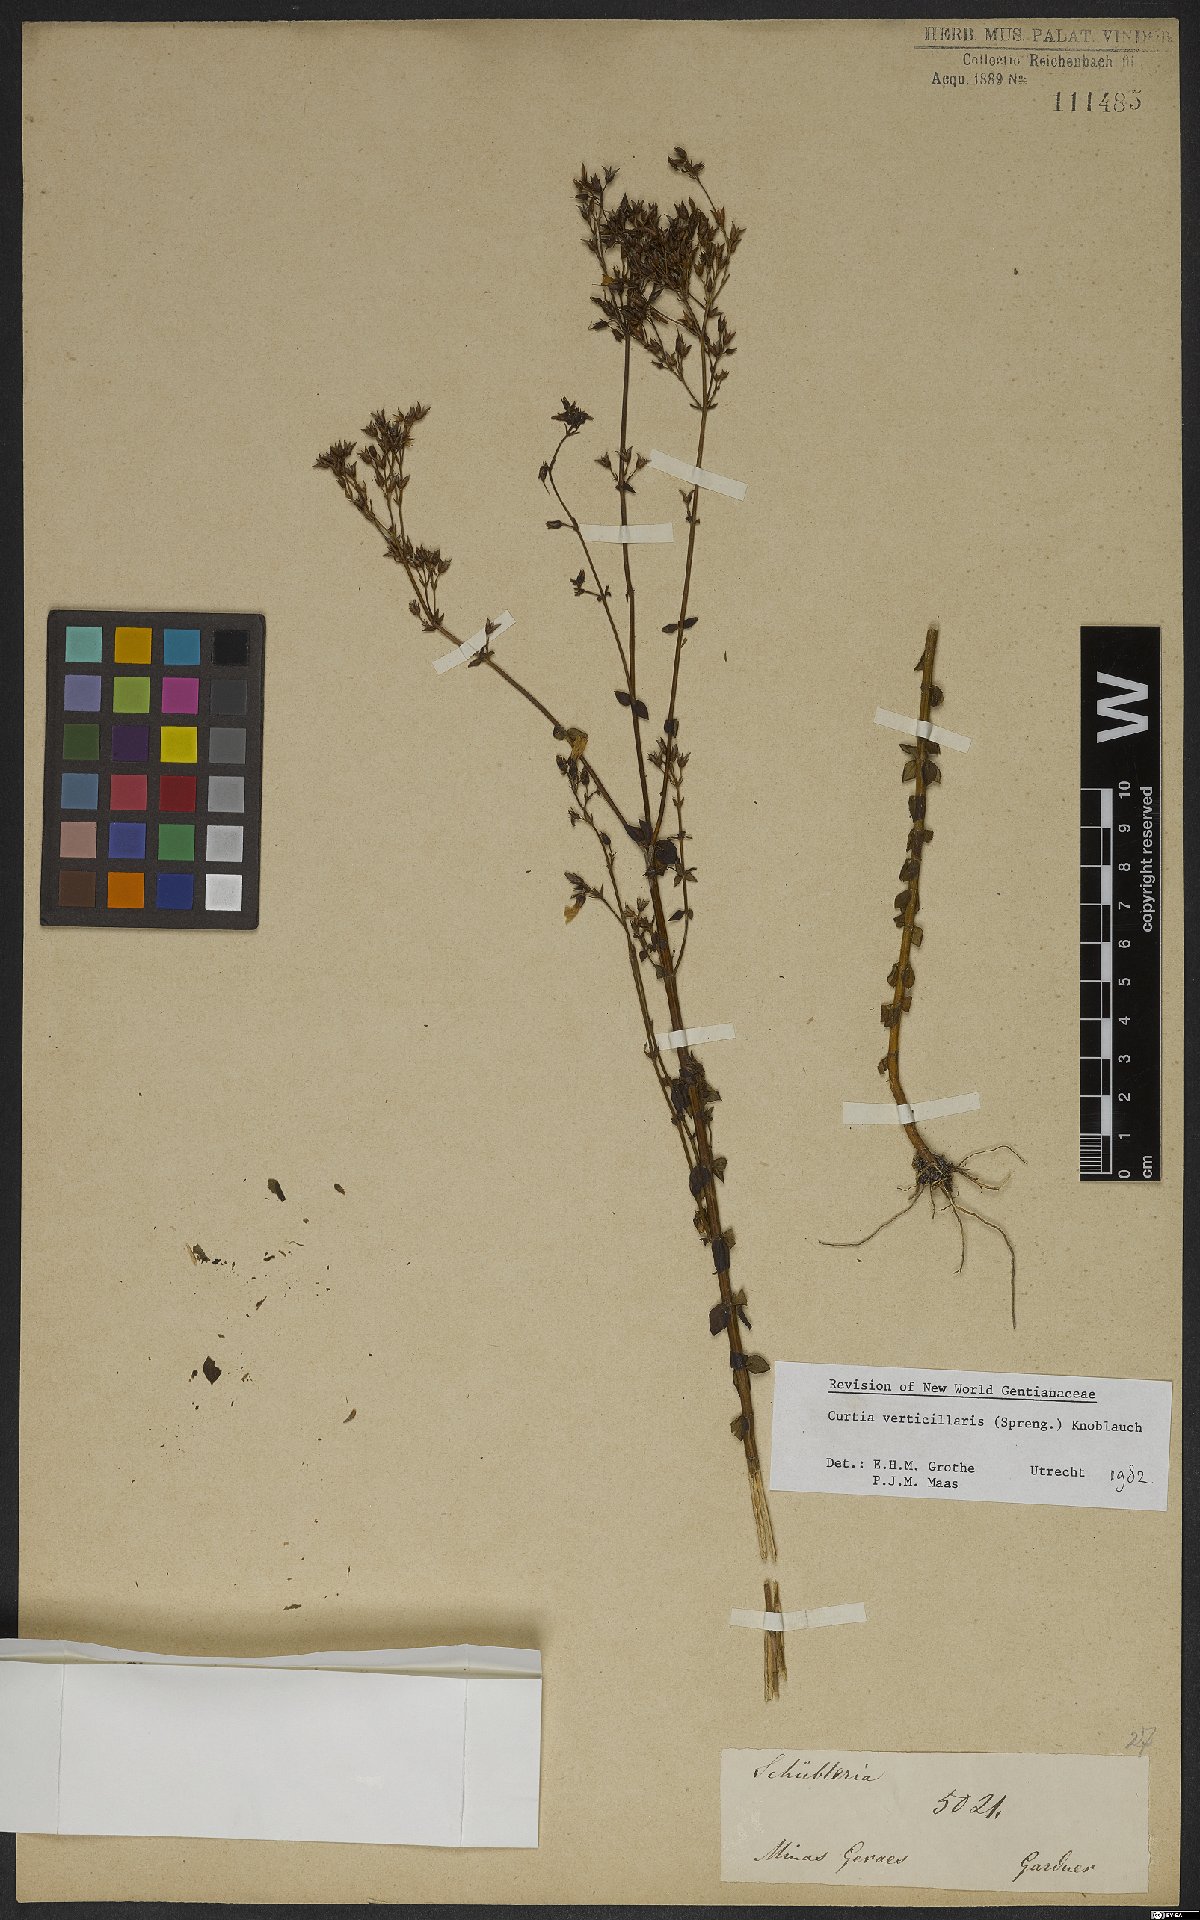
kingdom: Plantae
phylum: Tracheophyta
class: Magnoliopsida
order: Gentianales
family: Gentianaceae
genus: Curtia
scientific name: Curtia verticillaris
